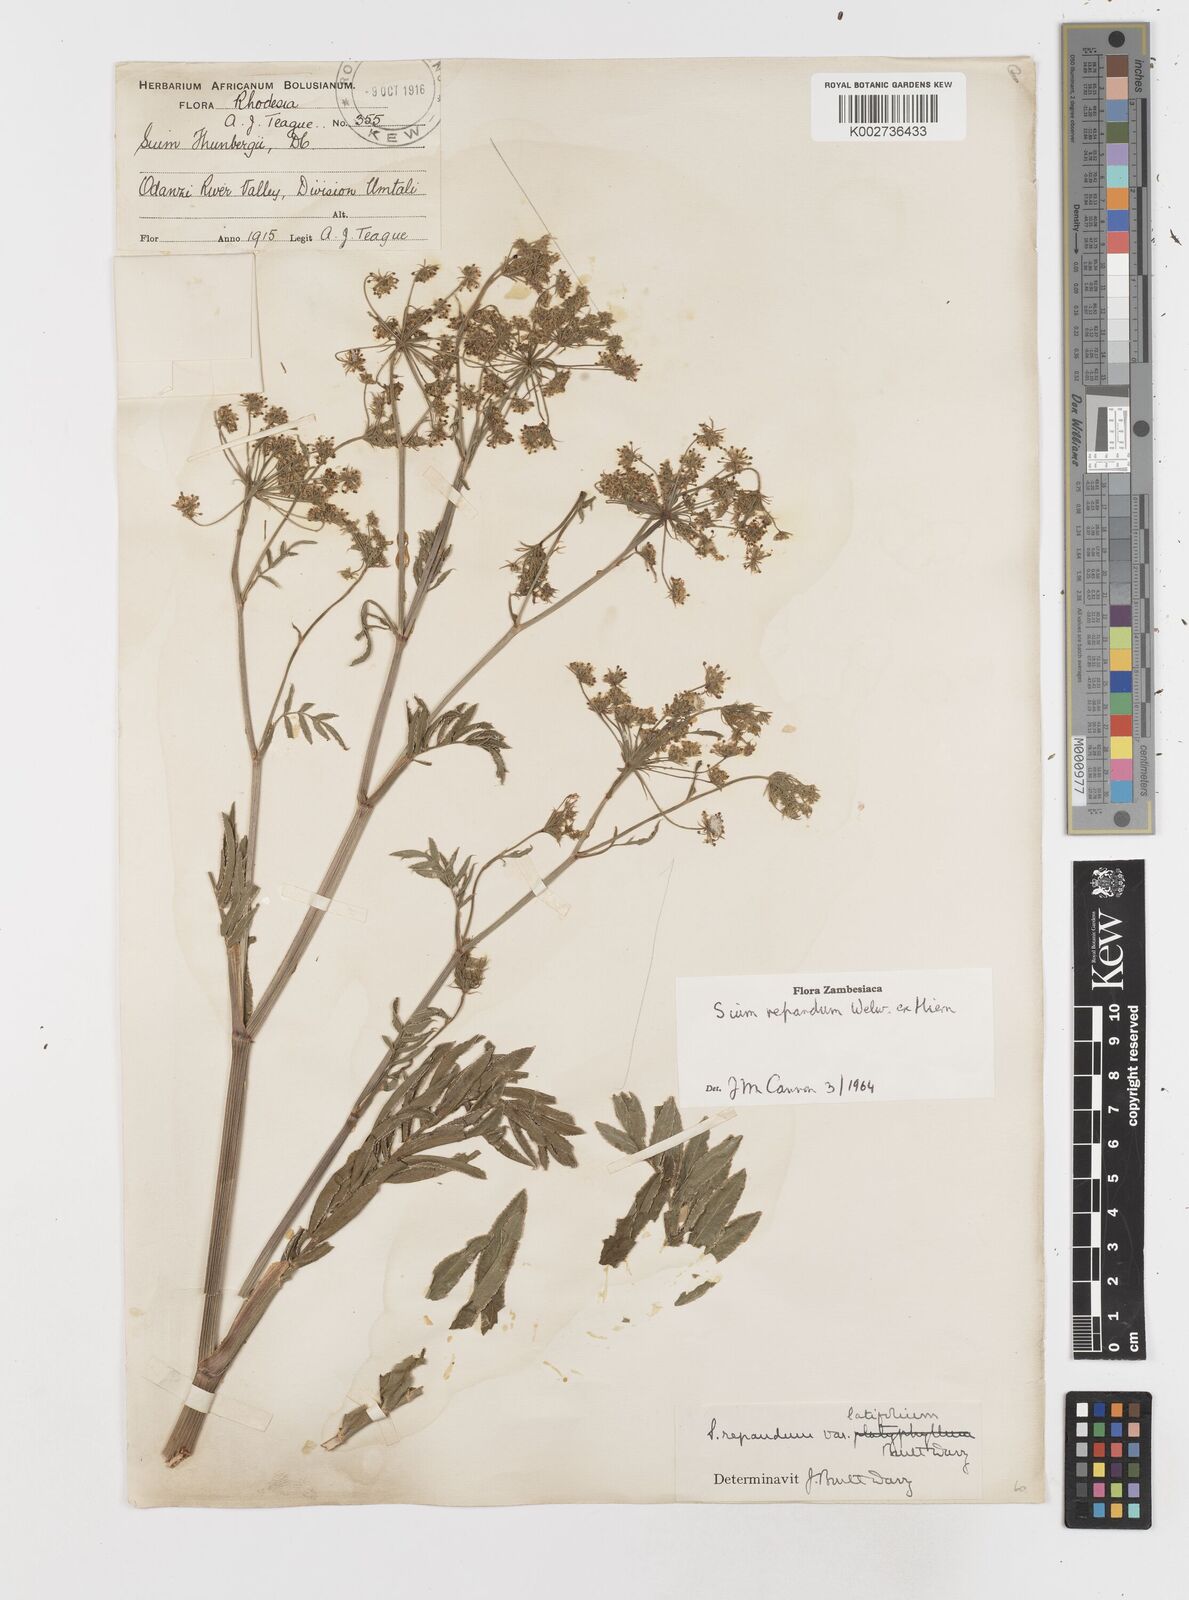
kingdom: Plantae
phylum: Tracheophyta
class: Magnoliopsida
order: Apiales
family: Apiaceae
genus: Berula
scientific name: Berula repanda
